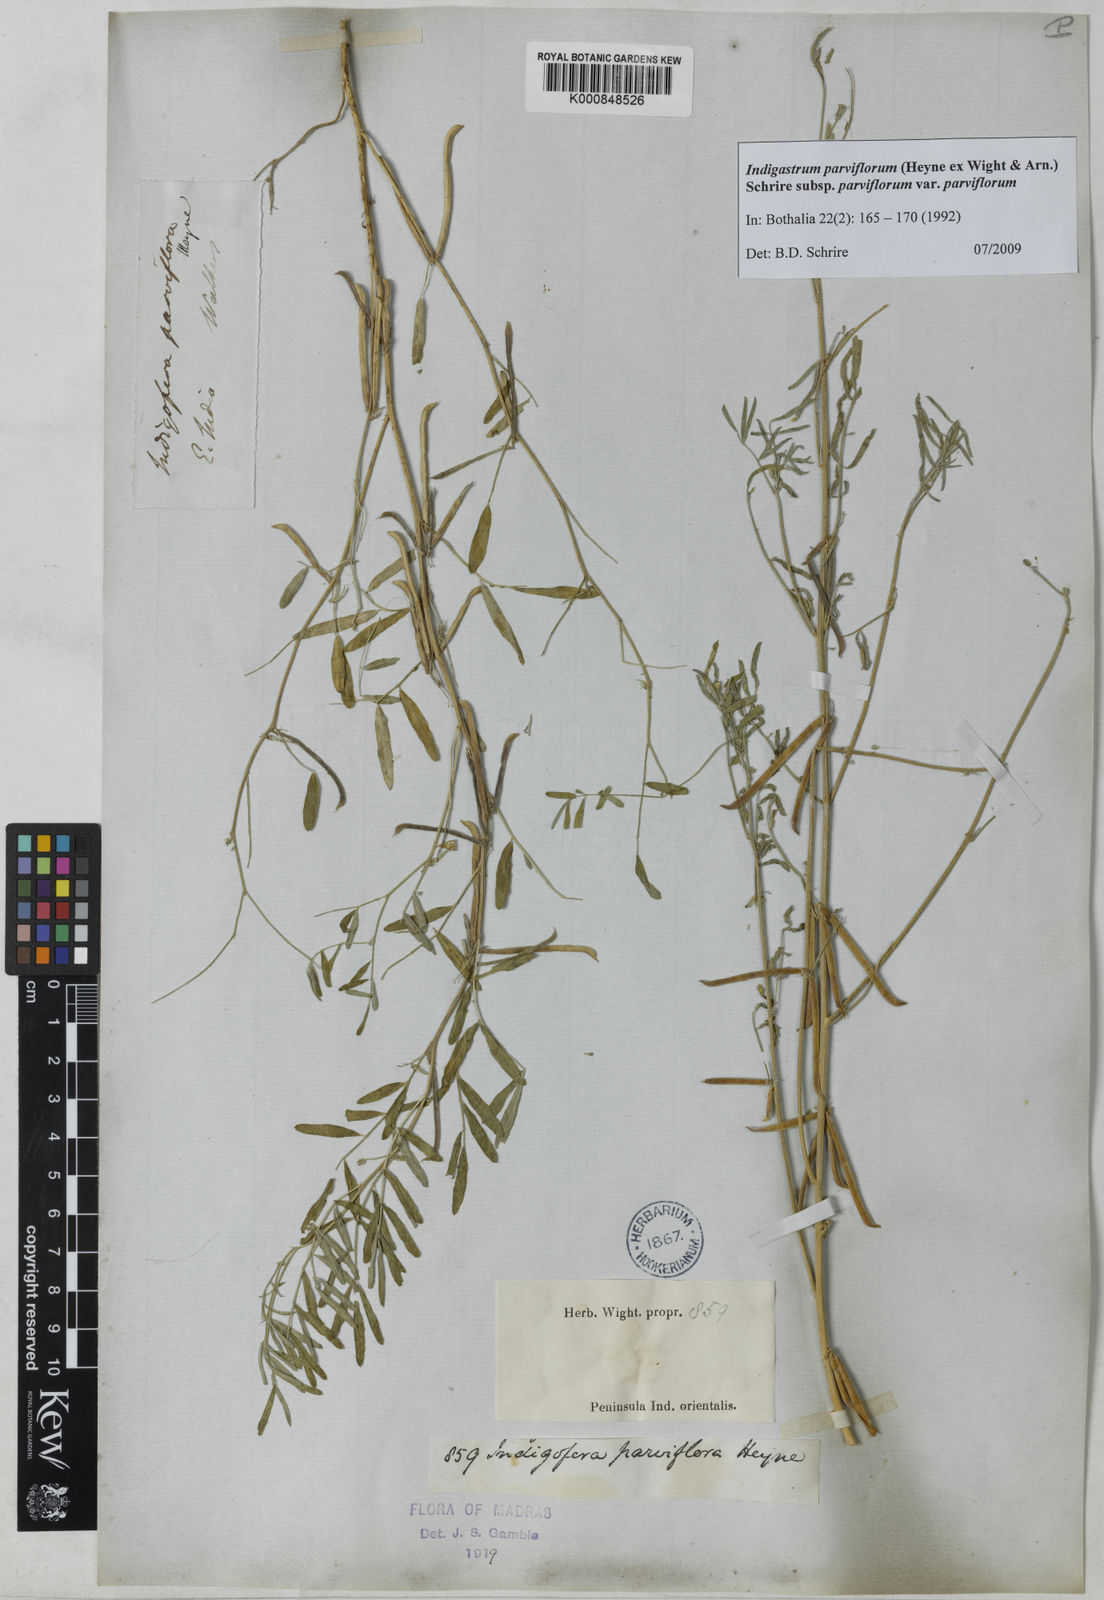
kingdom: Plantae
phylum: Tracheophyta
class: Magnoliopsida
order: Fabales
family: Fabaceae
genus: Indigastrum
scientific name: Indigastrum parviflorum
